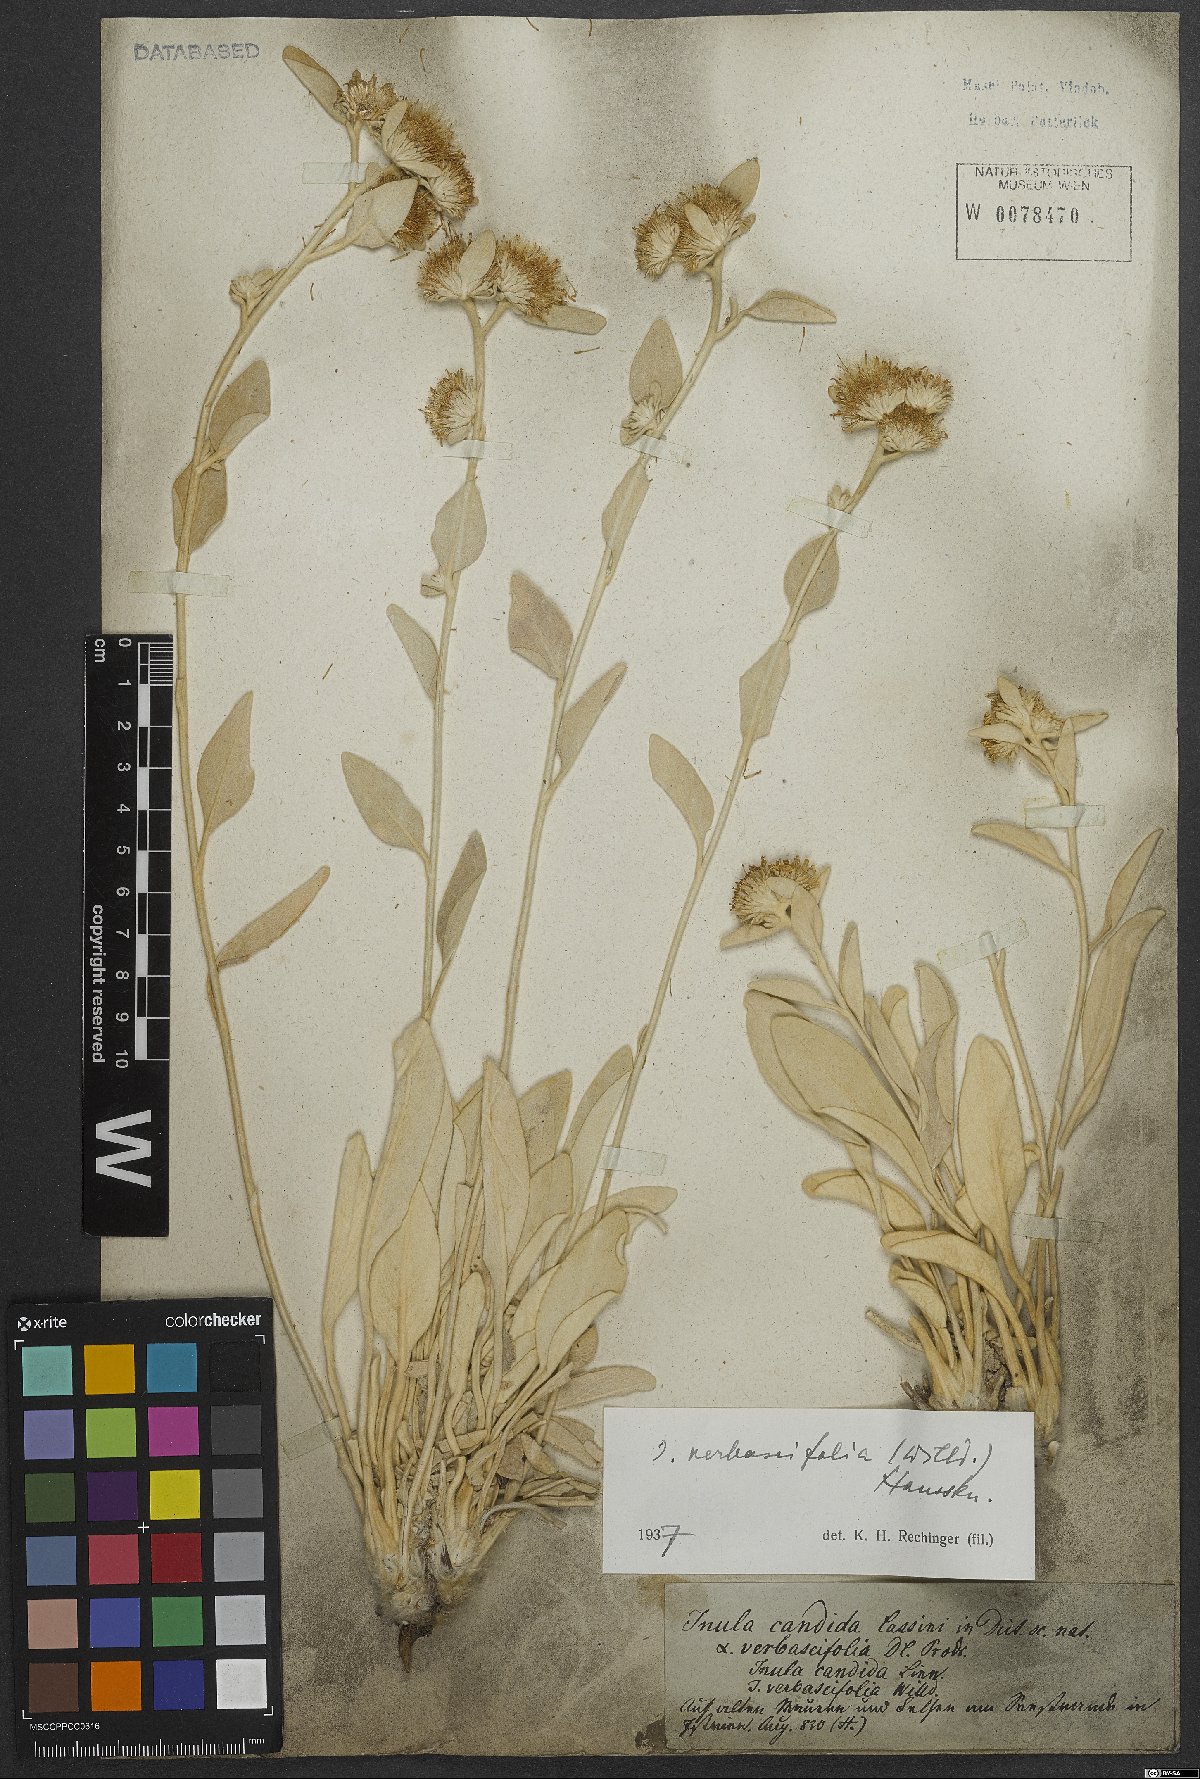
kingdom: Plantae
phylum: Tracheophyta
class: Magnoliopsida
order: Asterales
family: Asteraceae
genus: Pentanema
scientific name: Pentanema verbascifolium
